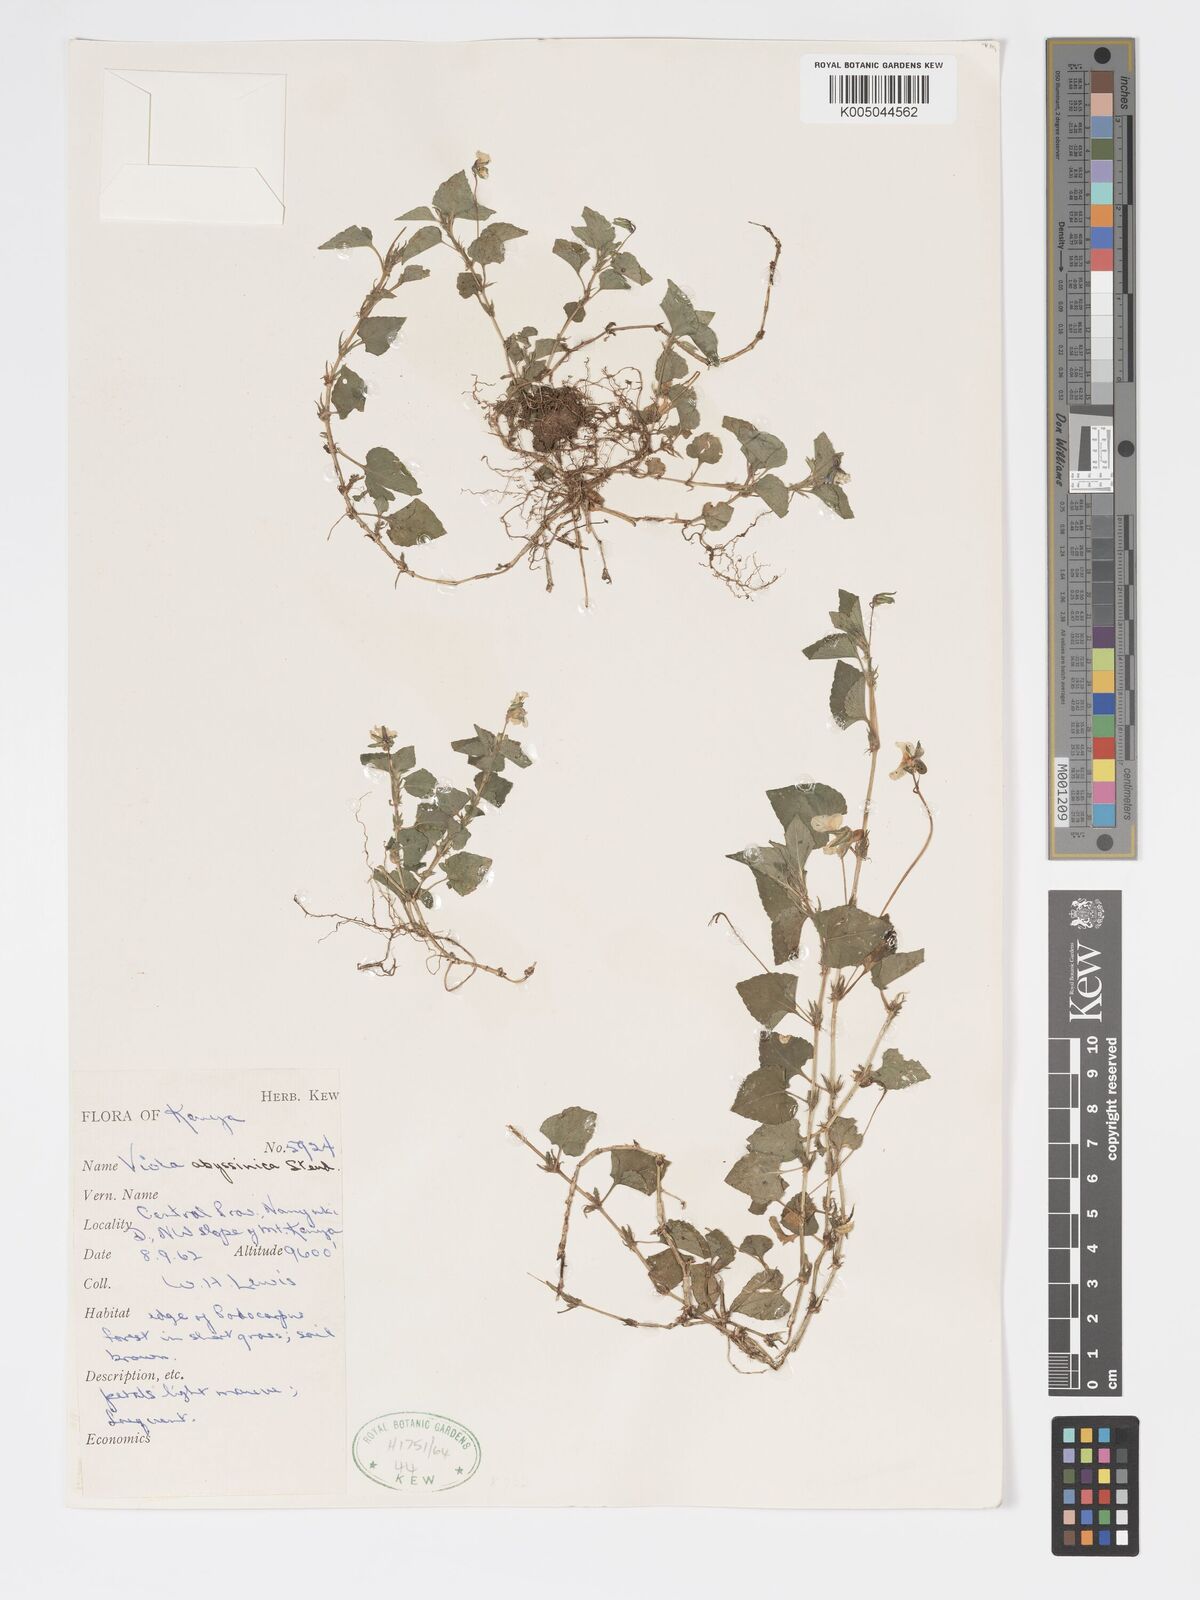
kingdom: Plantae
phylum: Tracheophyta
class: Magnoliopsida
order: Malpighiales
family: Violaceae
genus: Viola
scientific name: Viola abyssinica
